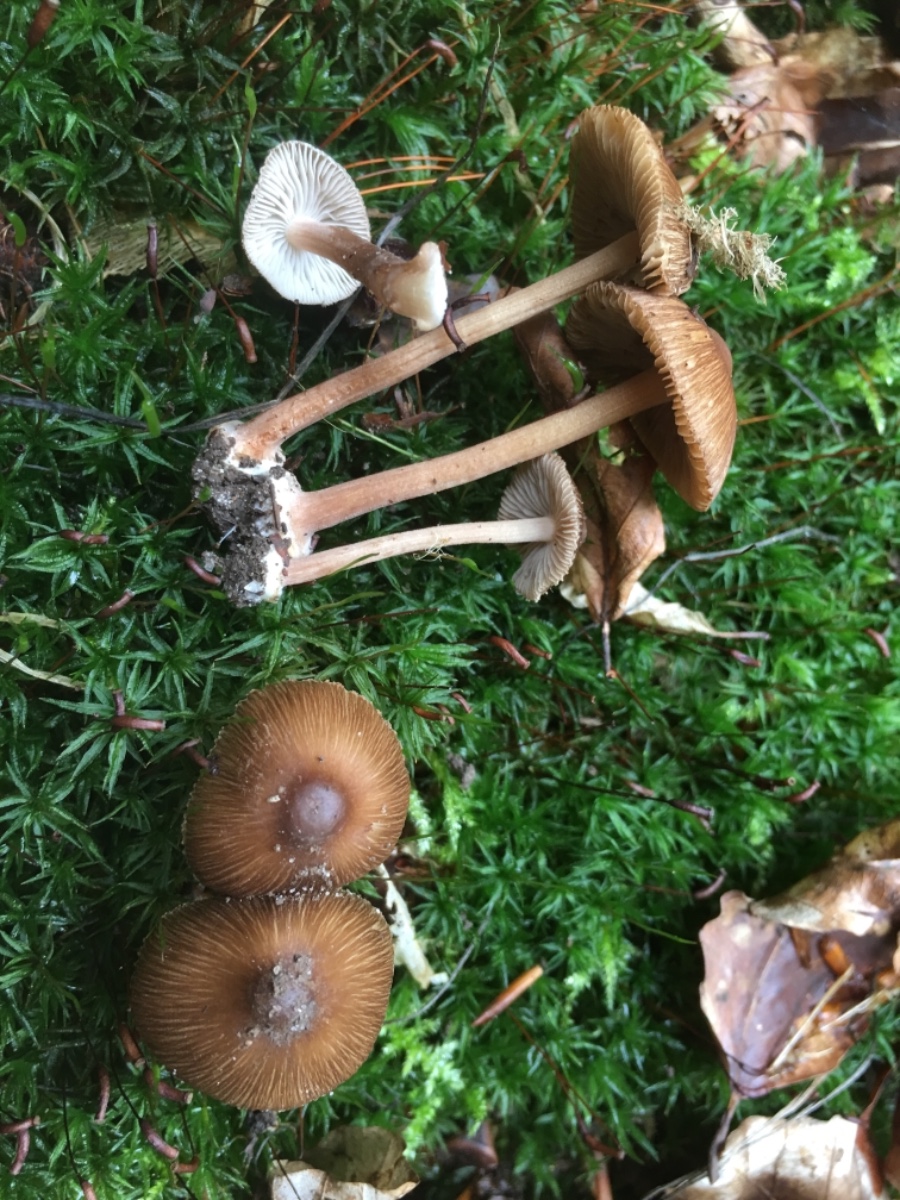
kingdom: Fungi
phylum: Basidiomycota
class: Agaricomycetes
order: Agaricales
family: Inocybaceae
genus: Inocybe
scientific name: Inocybe asterospora
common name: stjernesporet trævlhat
